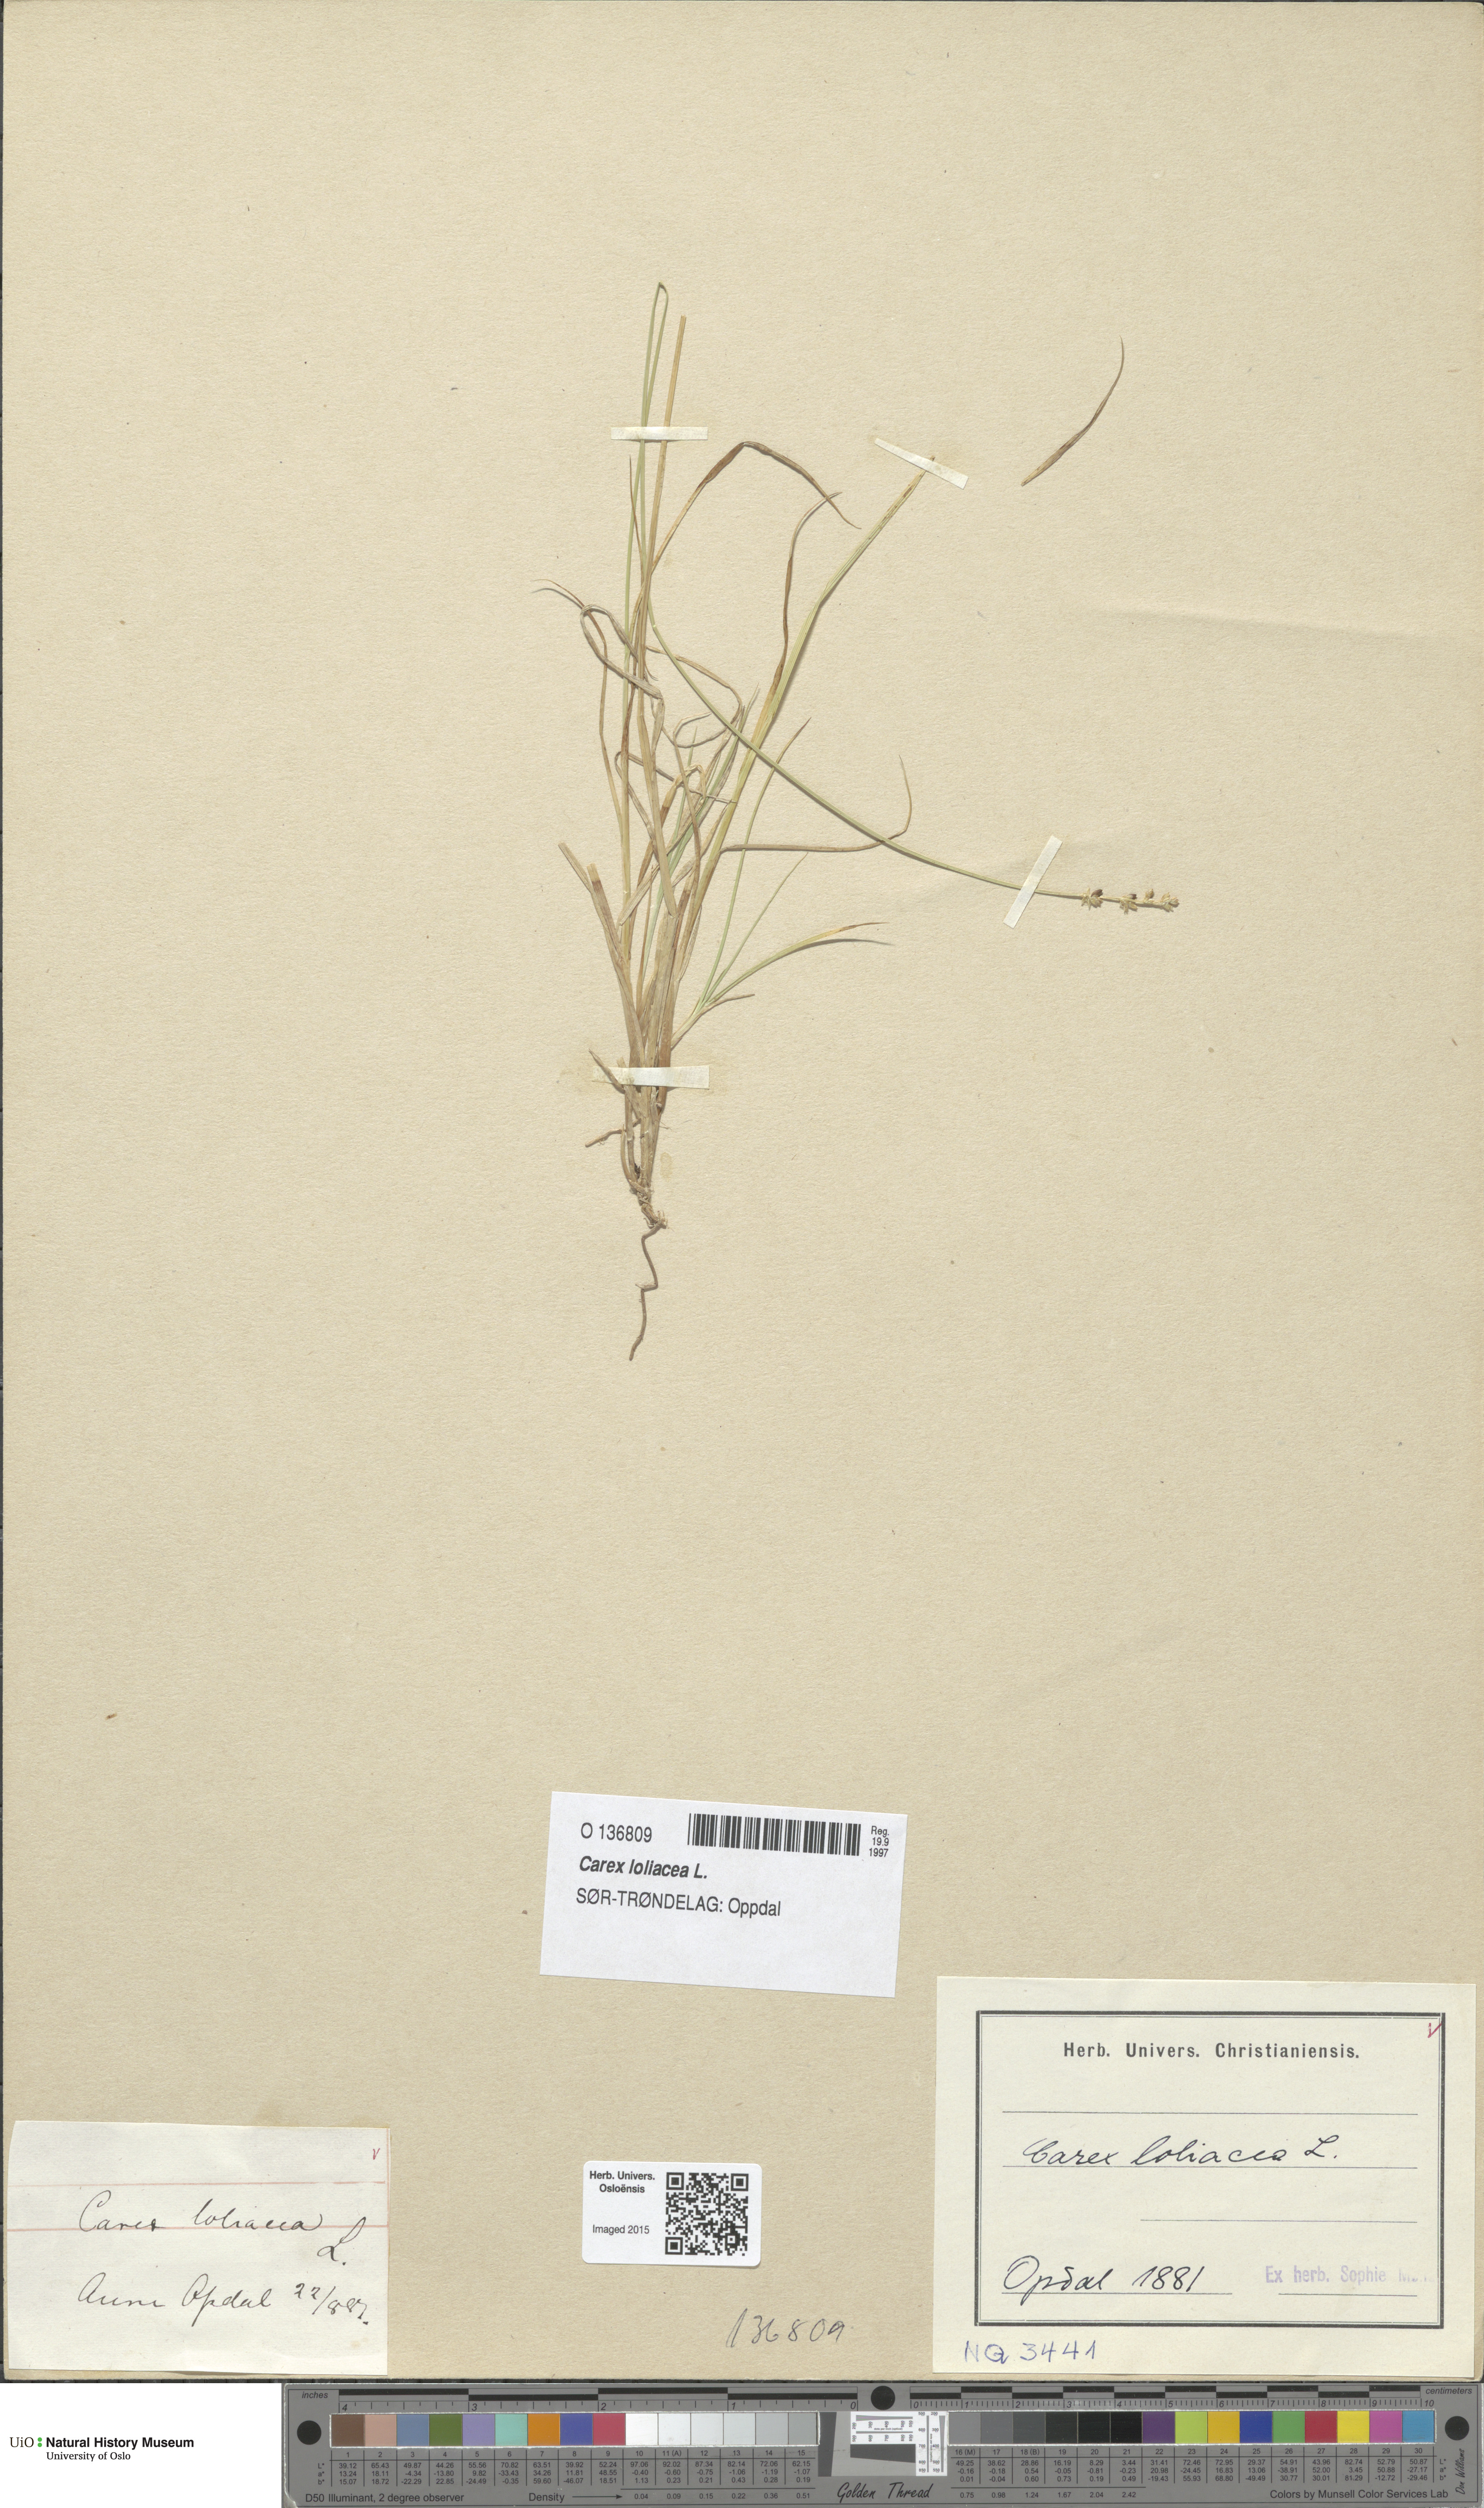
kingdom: Plantae
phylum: Tracheophyta
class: Liliopsida
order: Poales
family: Cyperaceae
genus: Carex
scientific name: Carex loliacea
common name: Ryegrass sedge
